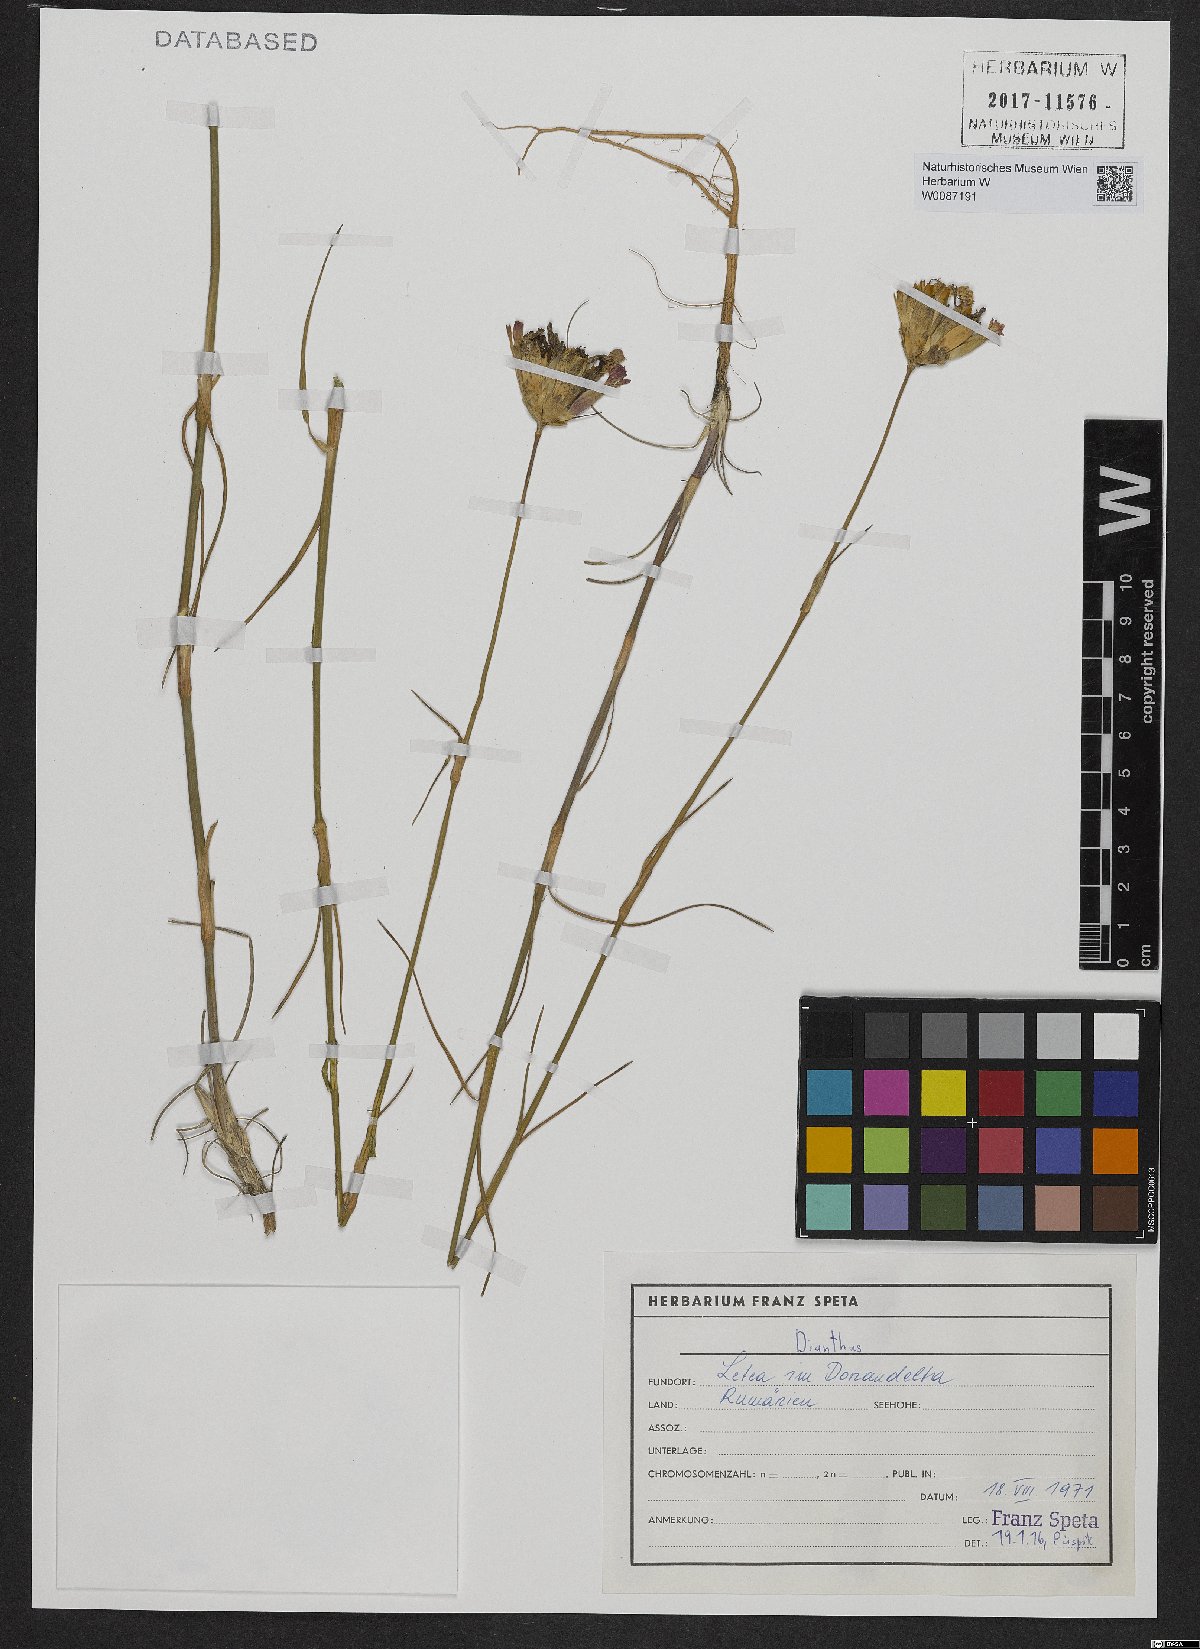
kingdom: Plantae
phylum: Tracheophyta
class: Magnoliopsida
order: Caryophyllales
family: Caryophyllaceae
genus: Dianthus
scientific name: Dianthus
